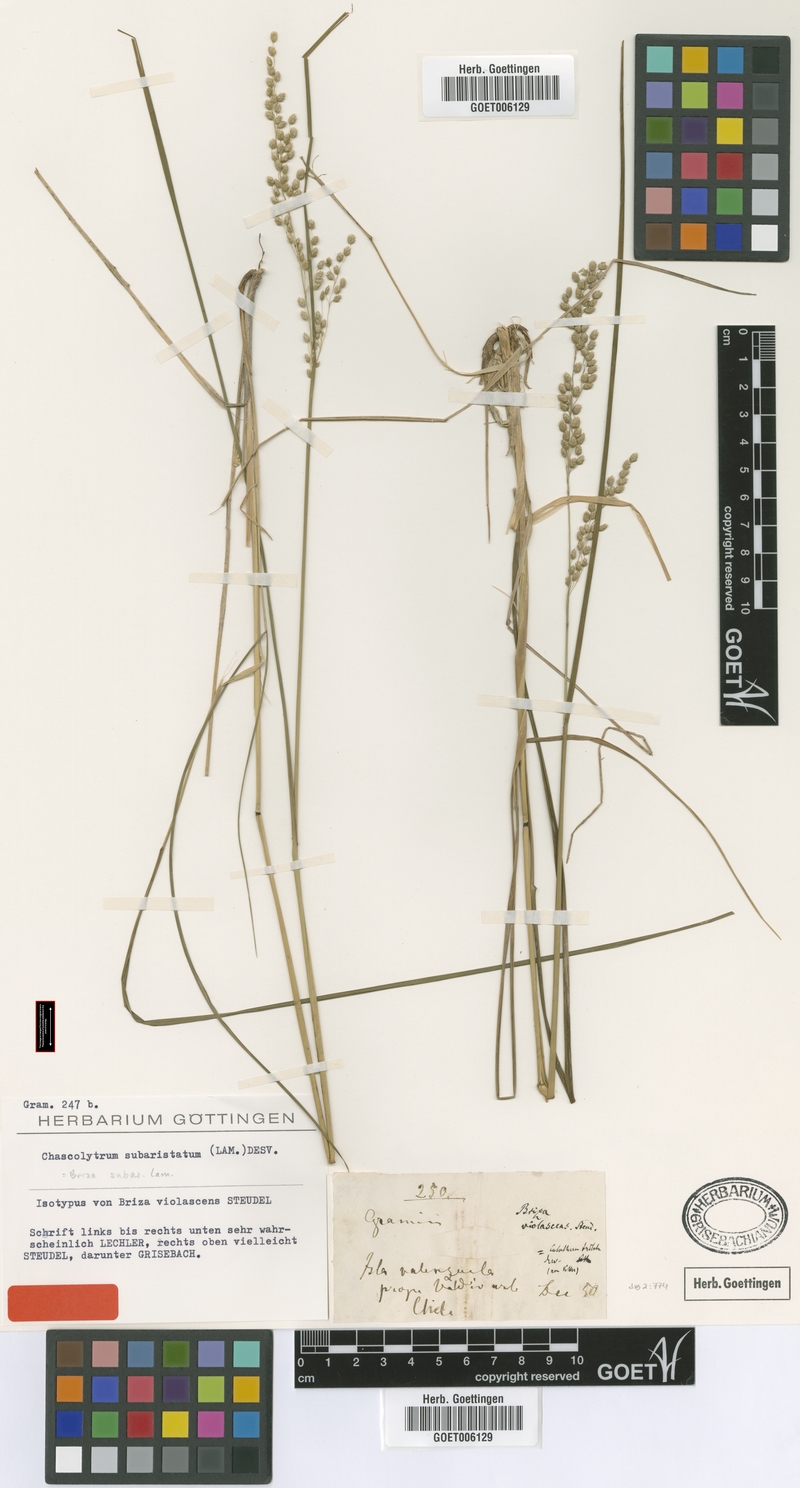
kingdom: Plantae
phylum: Tracheophyta
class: Liliopsida
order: Poales
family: Poaceae
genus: Chascolytrum
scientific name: Chascolytrum subaristatum
